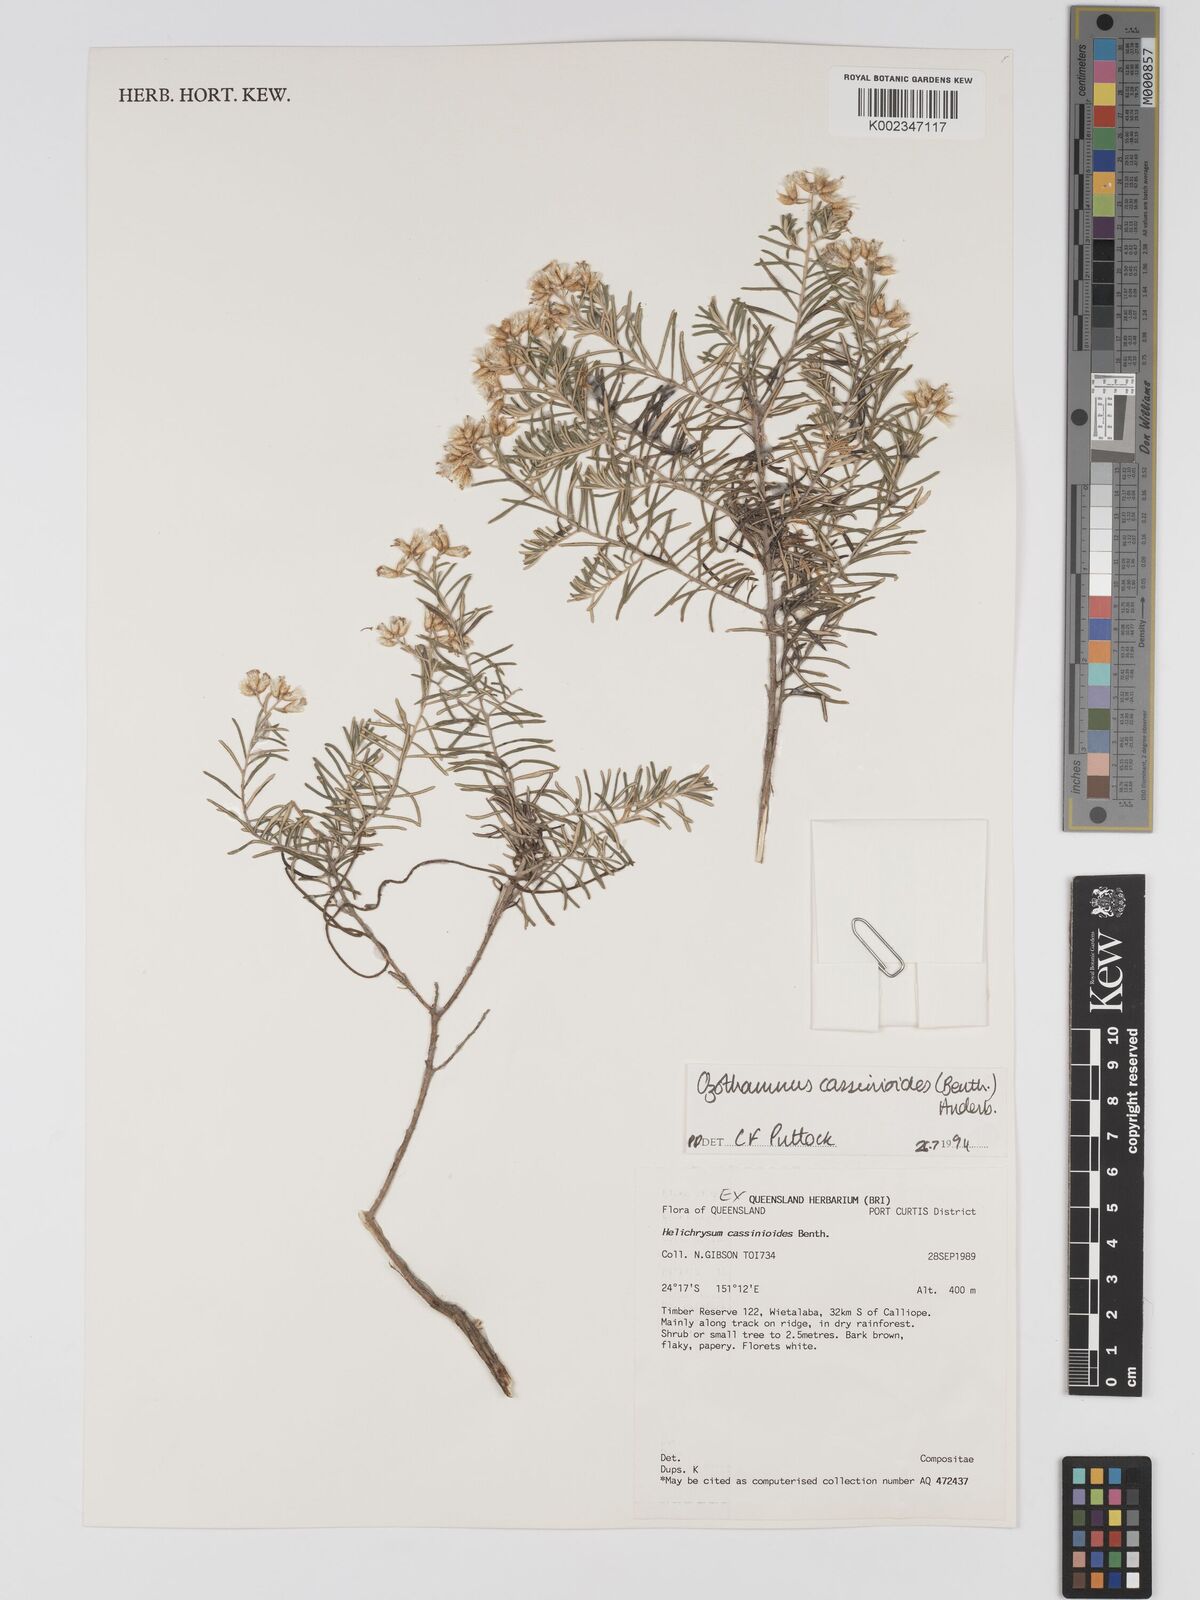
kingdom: Plantae
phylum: Tracheophyta
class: Magnoliopsida
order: Asterales
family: Asteraceae
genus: Ozothamnus
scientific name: Ozothamnus cassinioides
